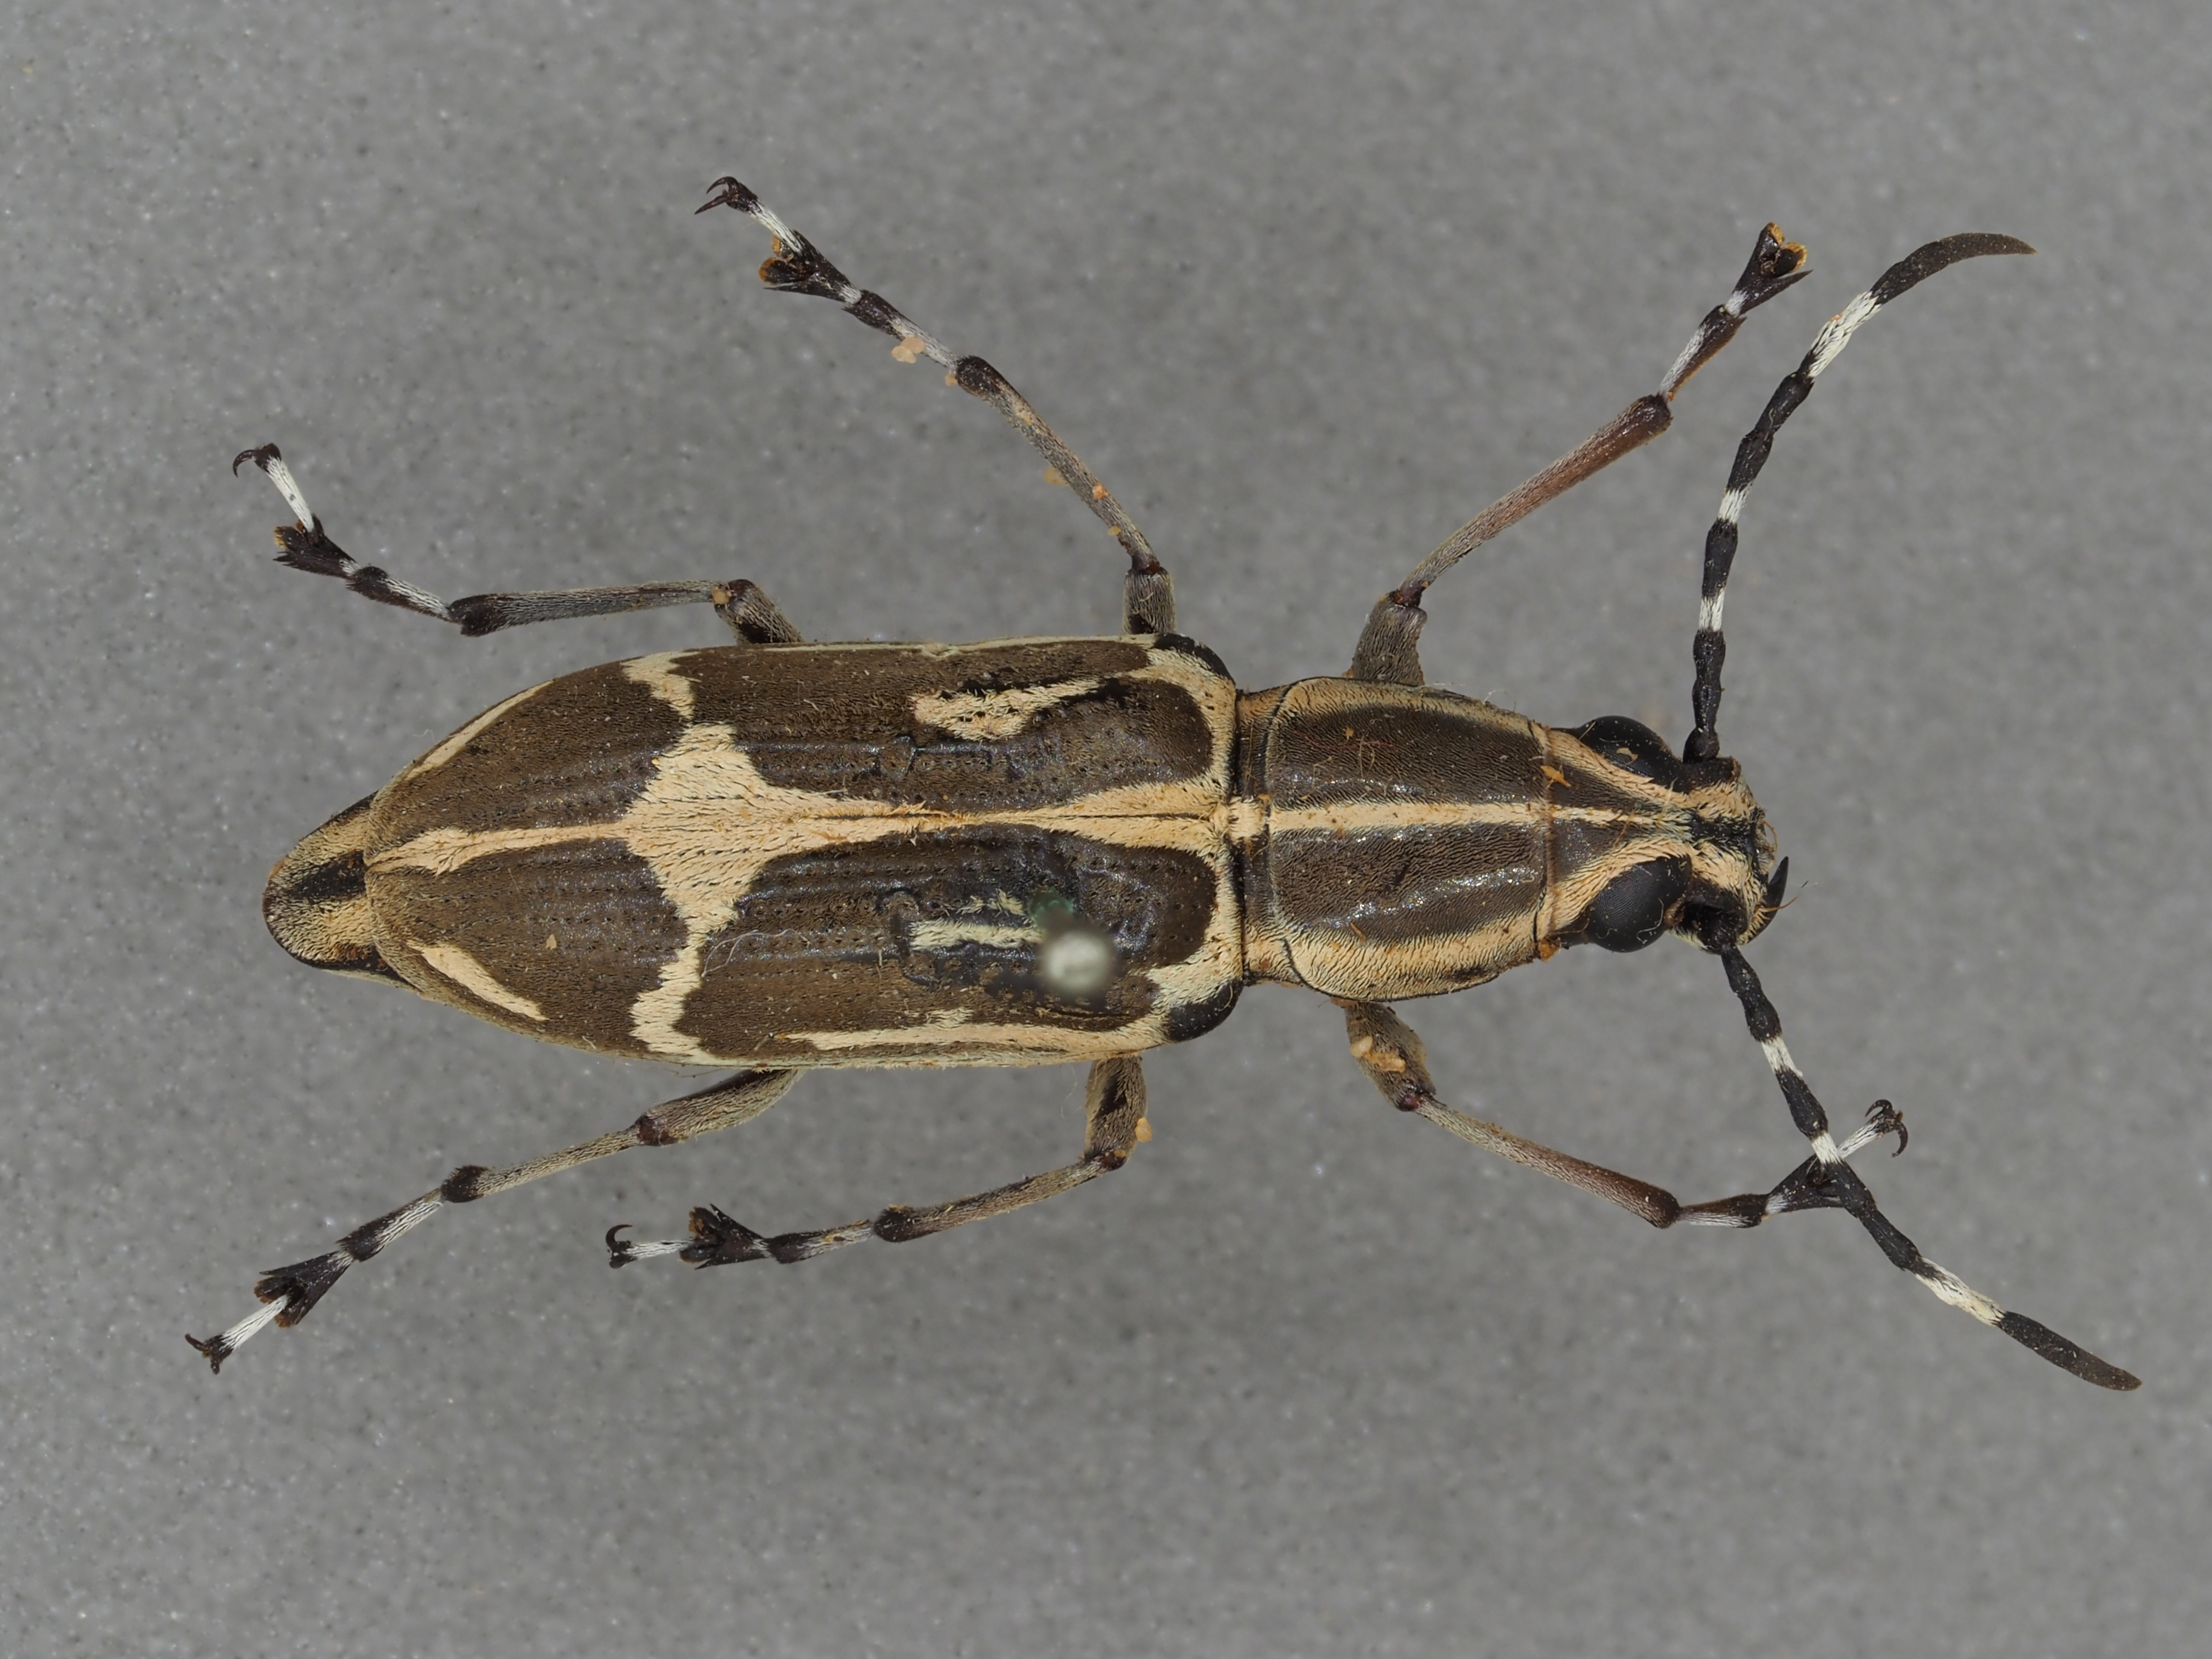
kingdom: Animalia
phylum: Arthropoda
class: Insecta
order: Coleoptera
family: Anthribidae
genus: Xenocerus
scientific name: Xenocerus flagellatus
